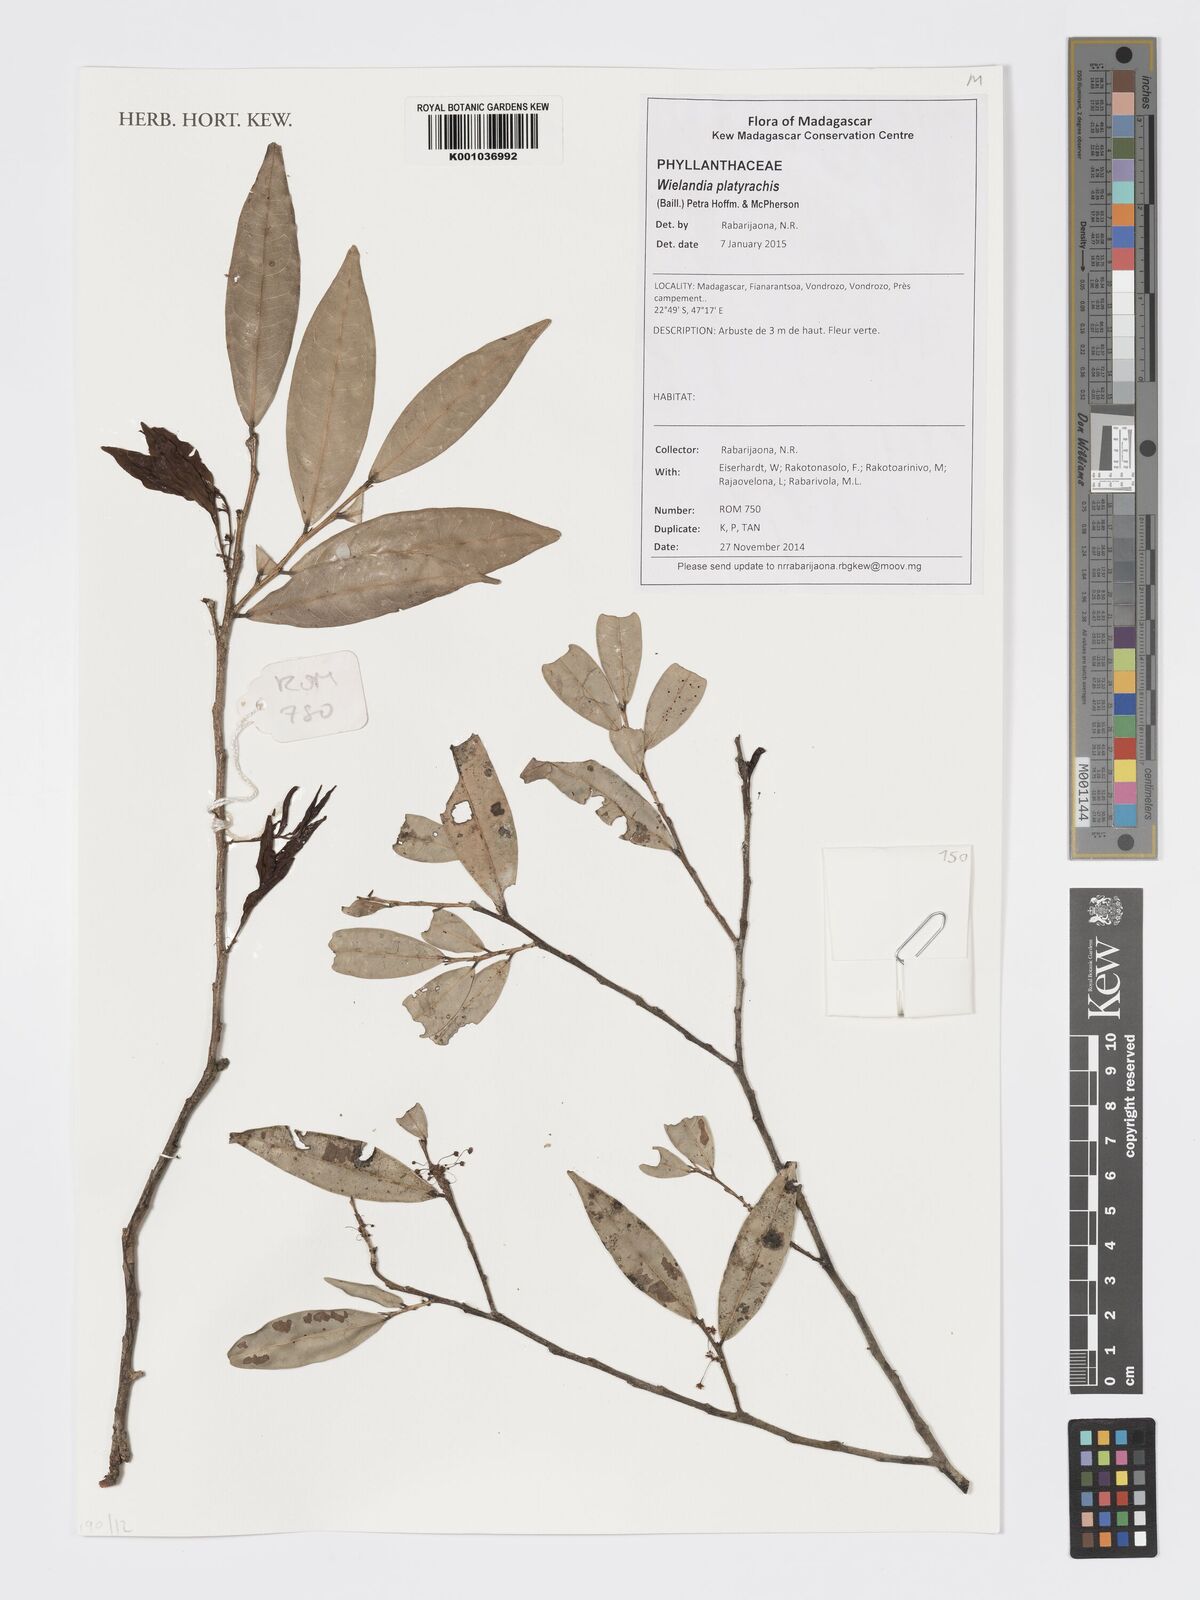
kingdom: Plantae
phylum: Tracheophyta
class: Magnoliopsida
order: Malpighiales
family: Phyllanthaceae
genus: Wielandia
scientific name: Wielandia platyrachis
